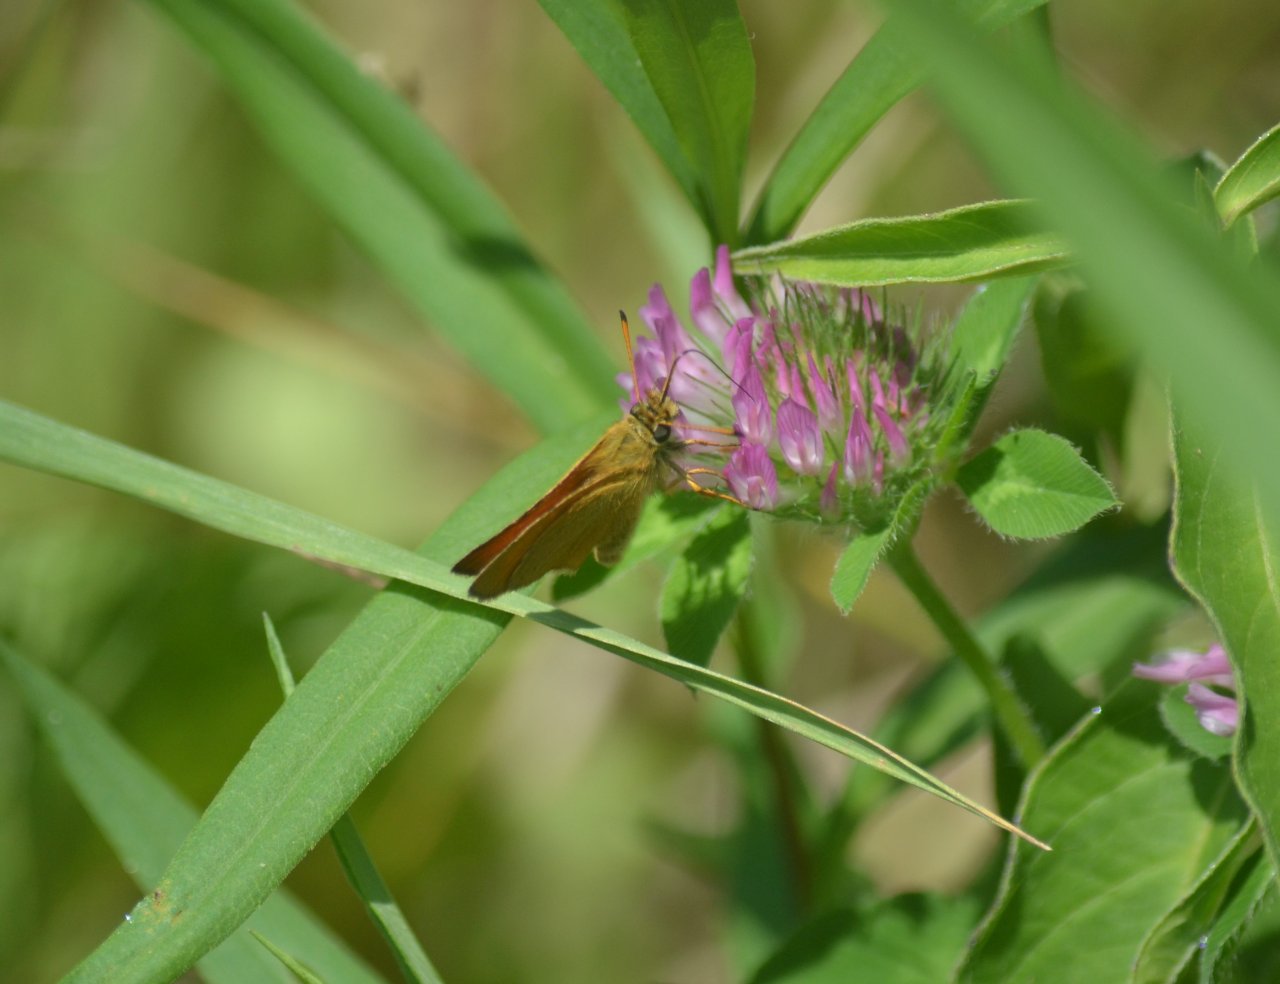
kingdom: Animalia
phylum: Arthropoda
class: Insecta
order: Lepidoptera
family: Hesperiidae
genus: Thymelicus
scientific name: Thymelicus lineola
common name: European Skipper
